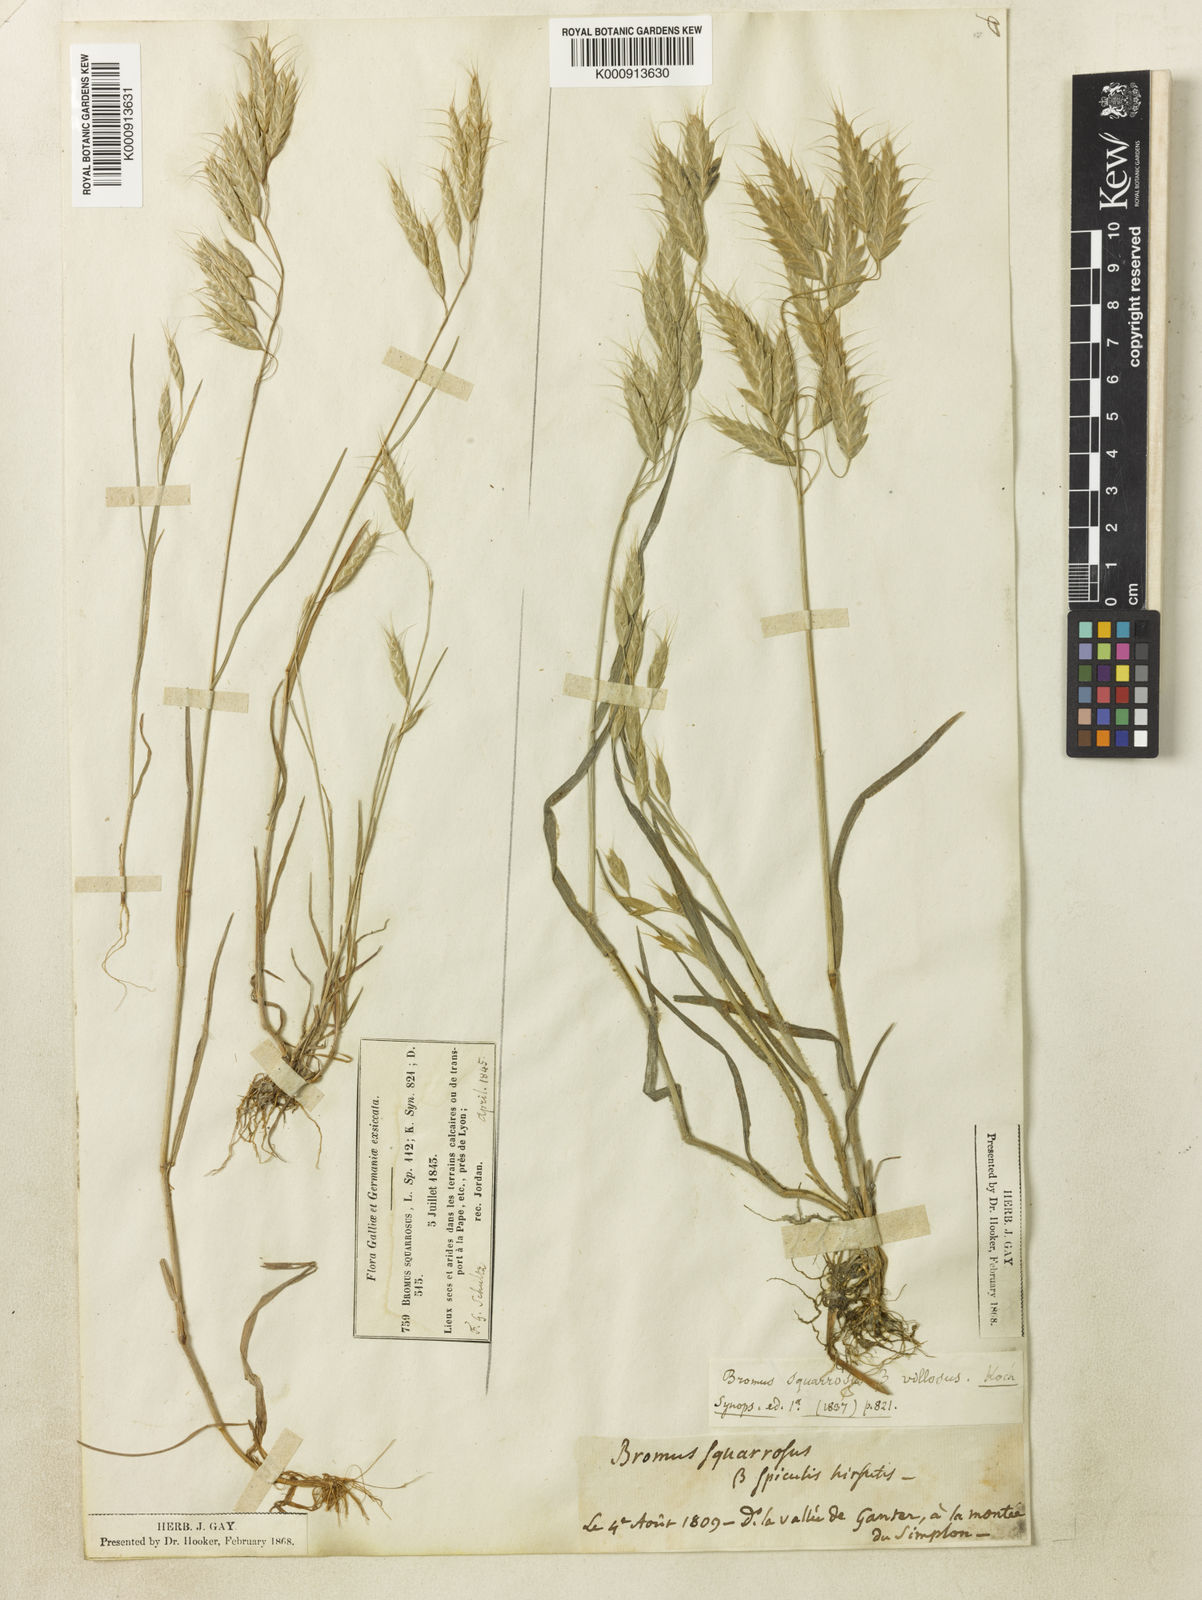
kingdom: Plantae
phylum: Tracheophyta
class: Liliopsida
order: Poales
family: Poaceae
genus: Bromus
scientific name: Bromus squarrosus
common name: Corn brome
